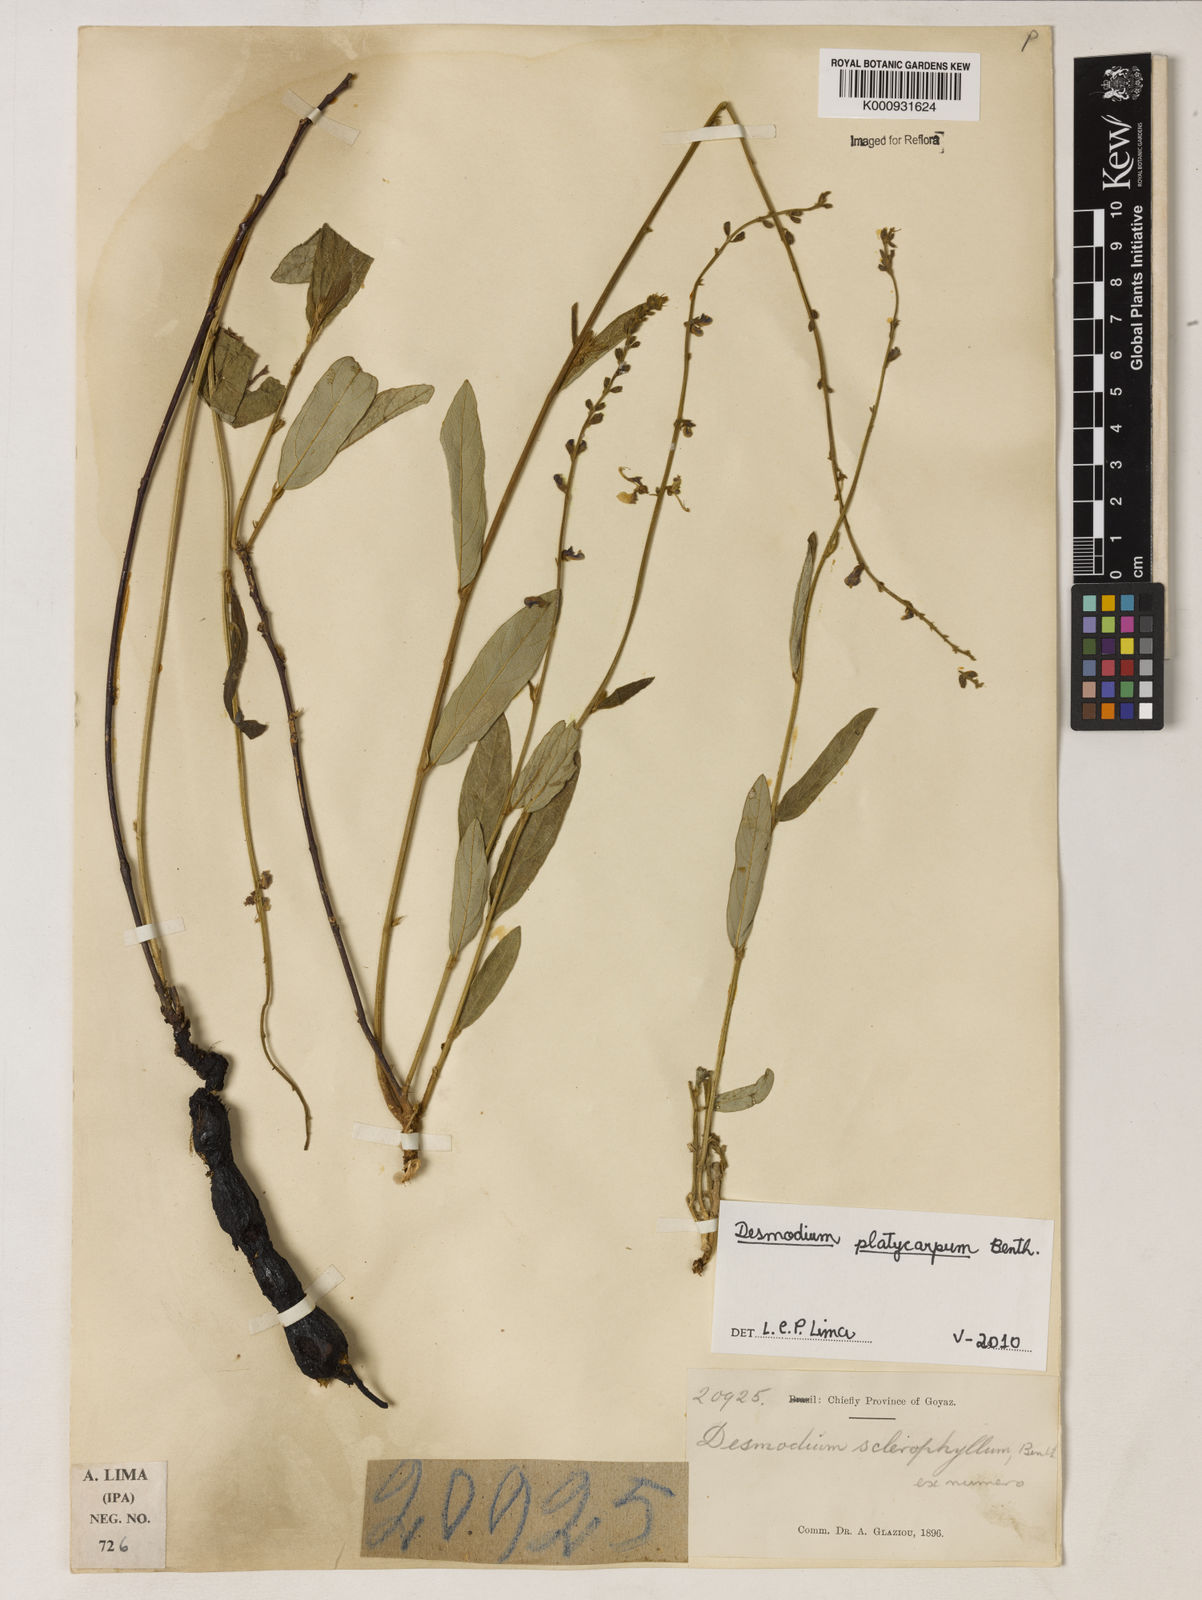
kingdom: Plantae
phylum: Tracheophyta
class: Magnoliopsida
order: Fabales
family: Fabaceae
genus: Desmodium
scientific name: Desmodium platycarpum
